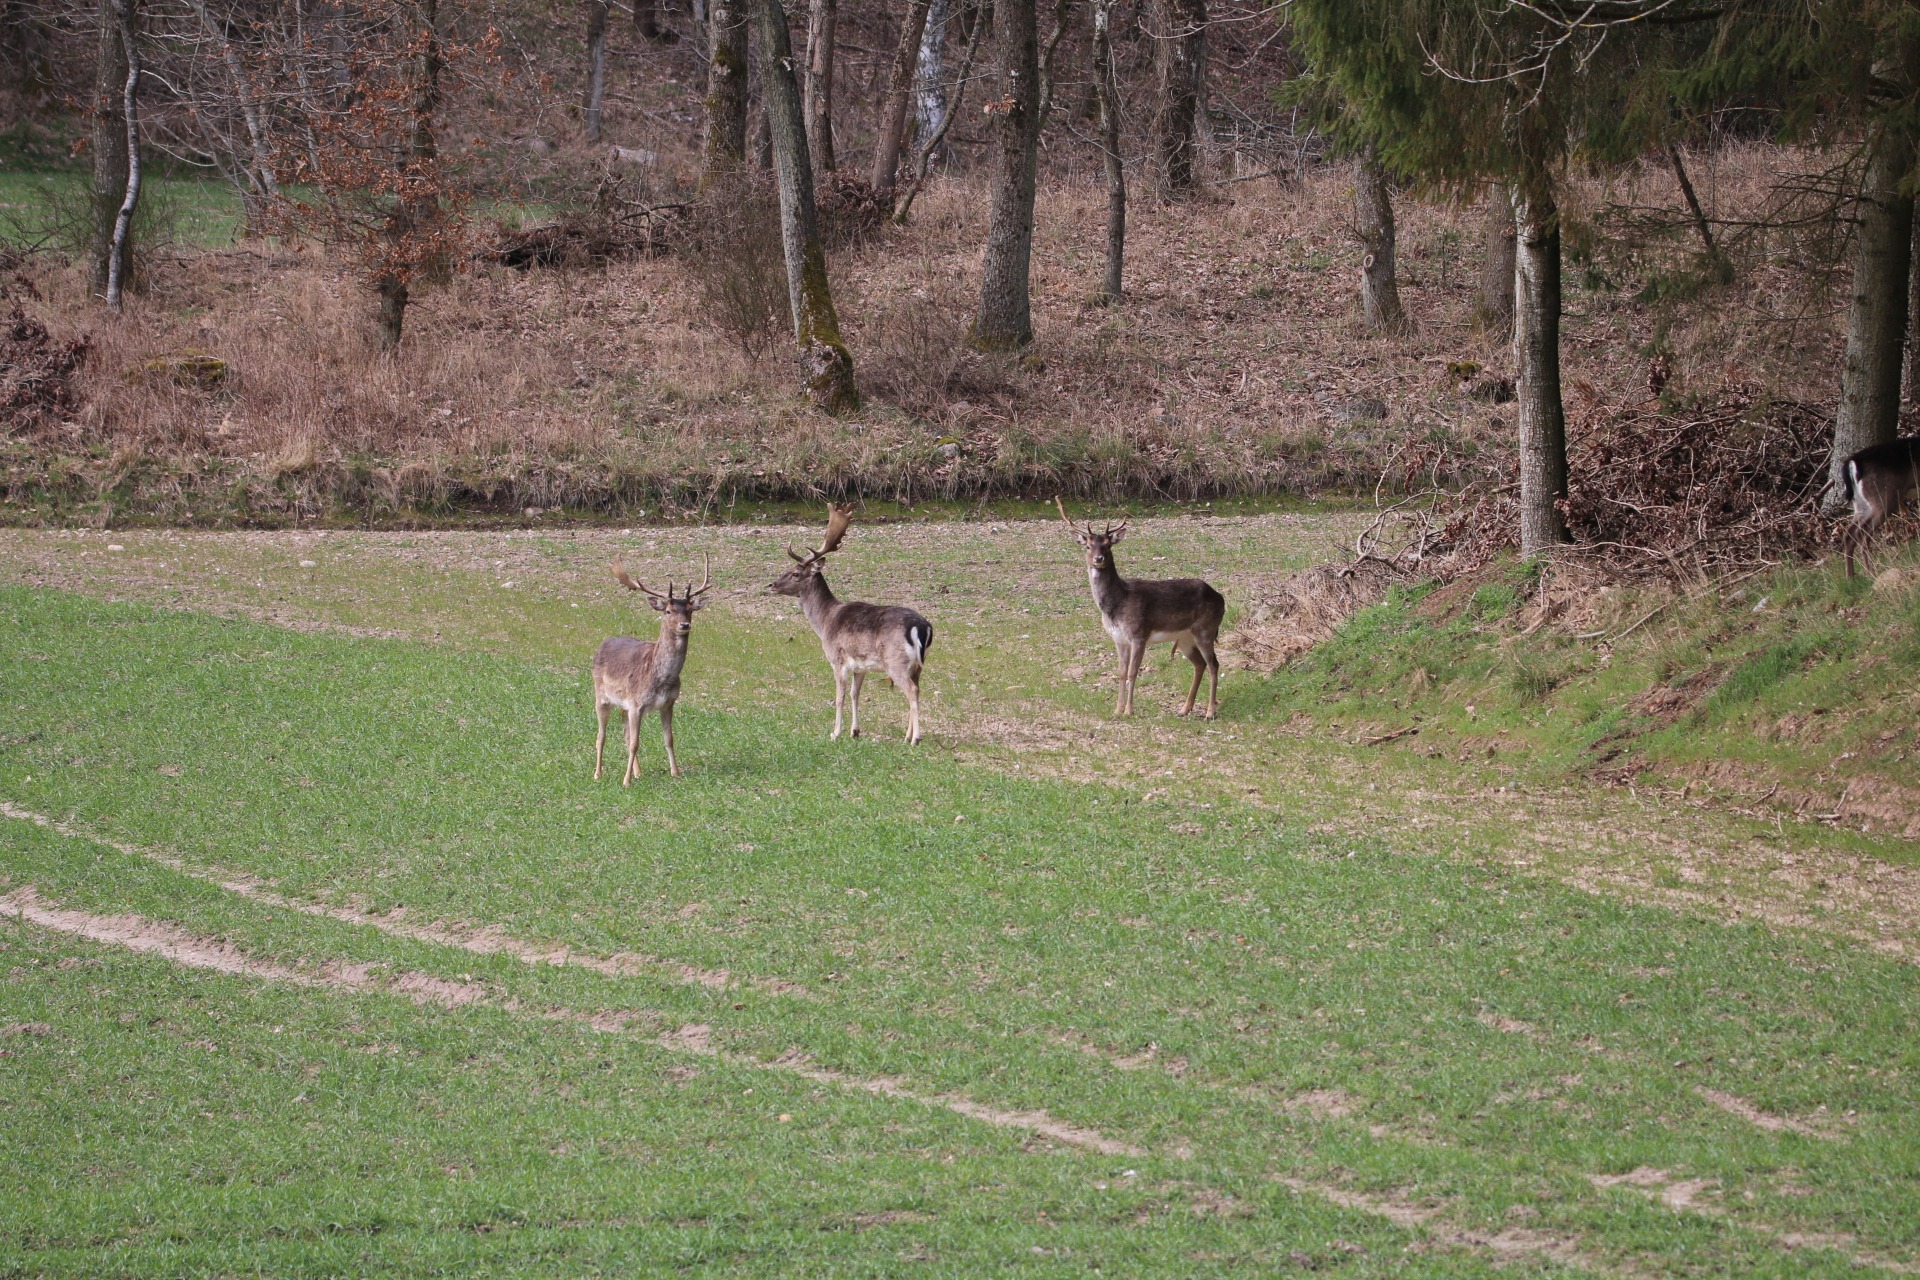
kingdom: Animalia
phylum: Chordata
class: Mammalia
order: Artiodactyla
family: Cervidae
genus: Dama
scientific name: Dama dama
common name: Dådyr
